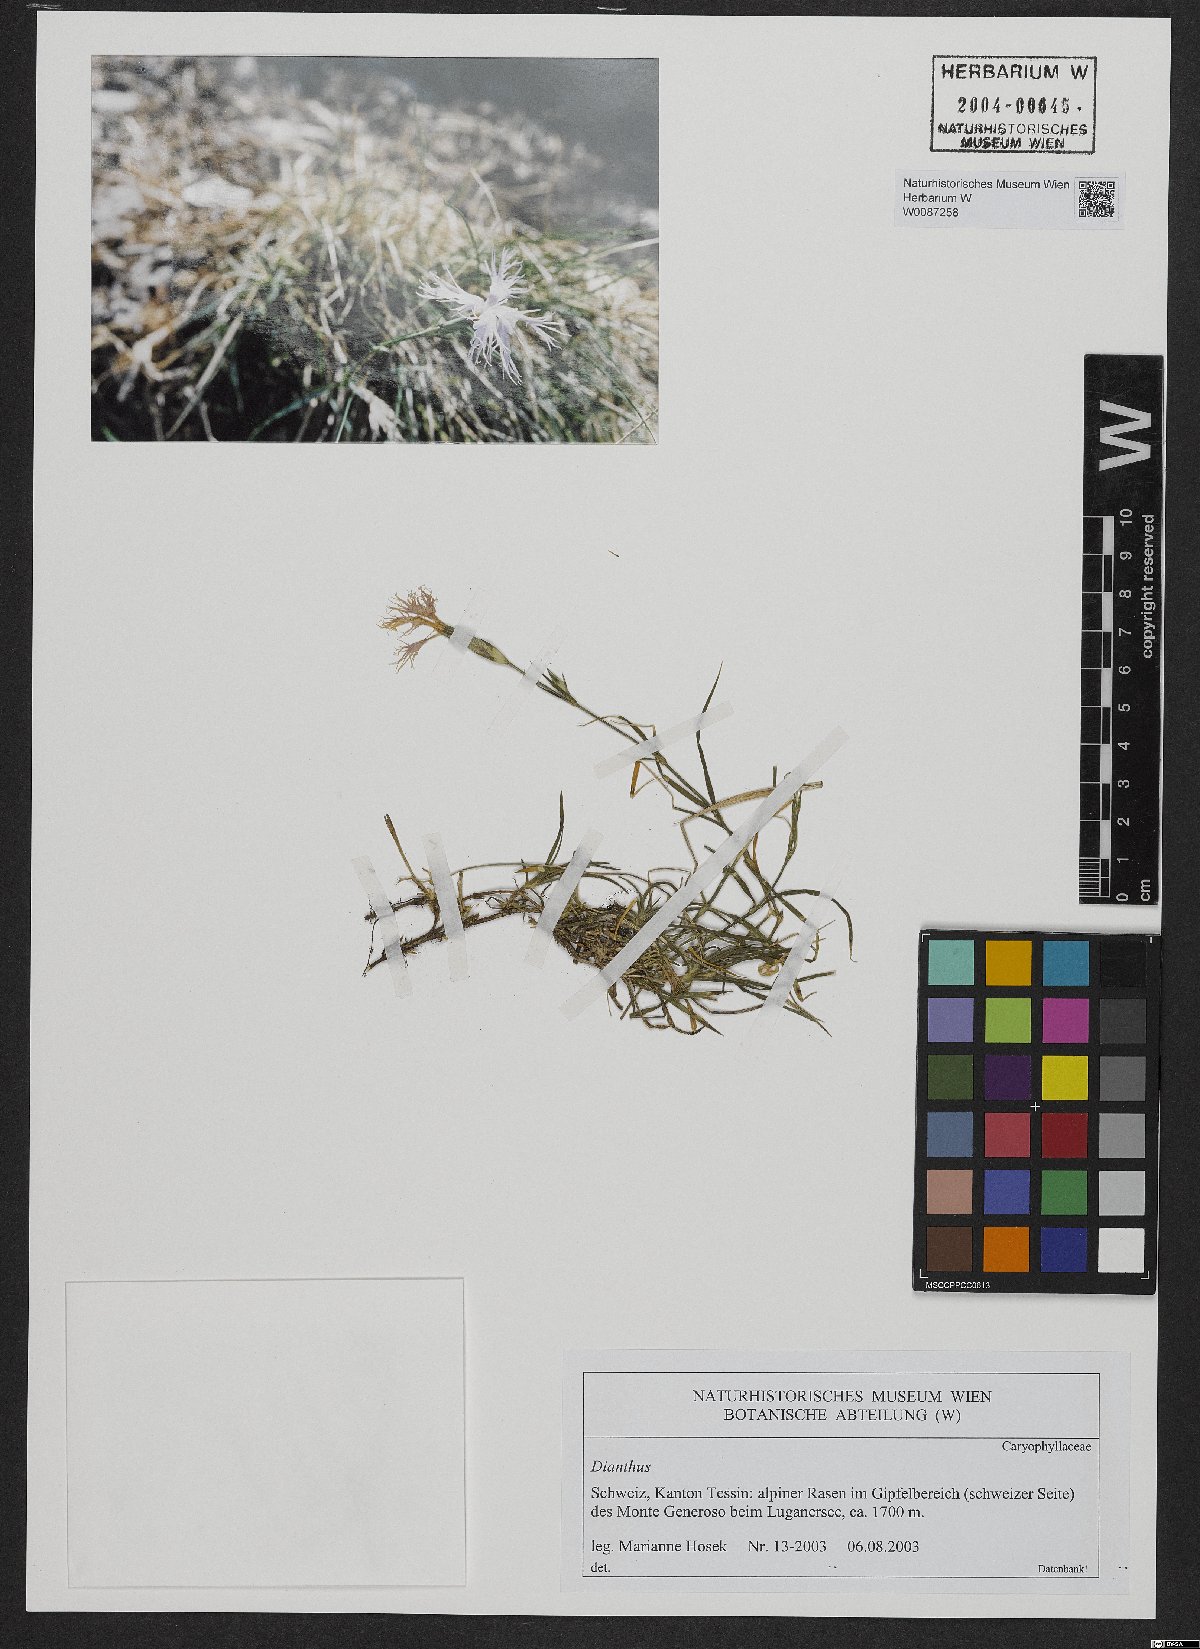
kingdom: Plantae
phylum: Tracheophyta
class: Magnoliopsida
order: Caryophyllales
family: Caryophyllaceae
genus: Dianthus
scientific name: Dianthus
